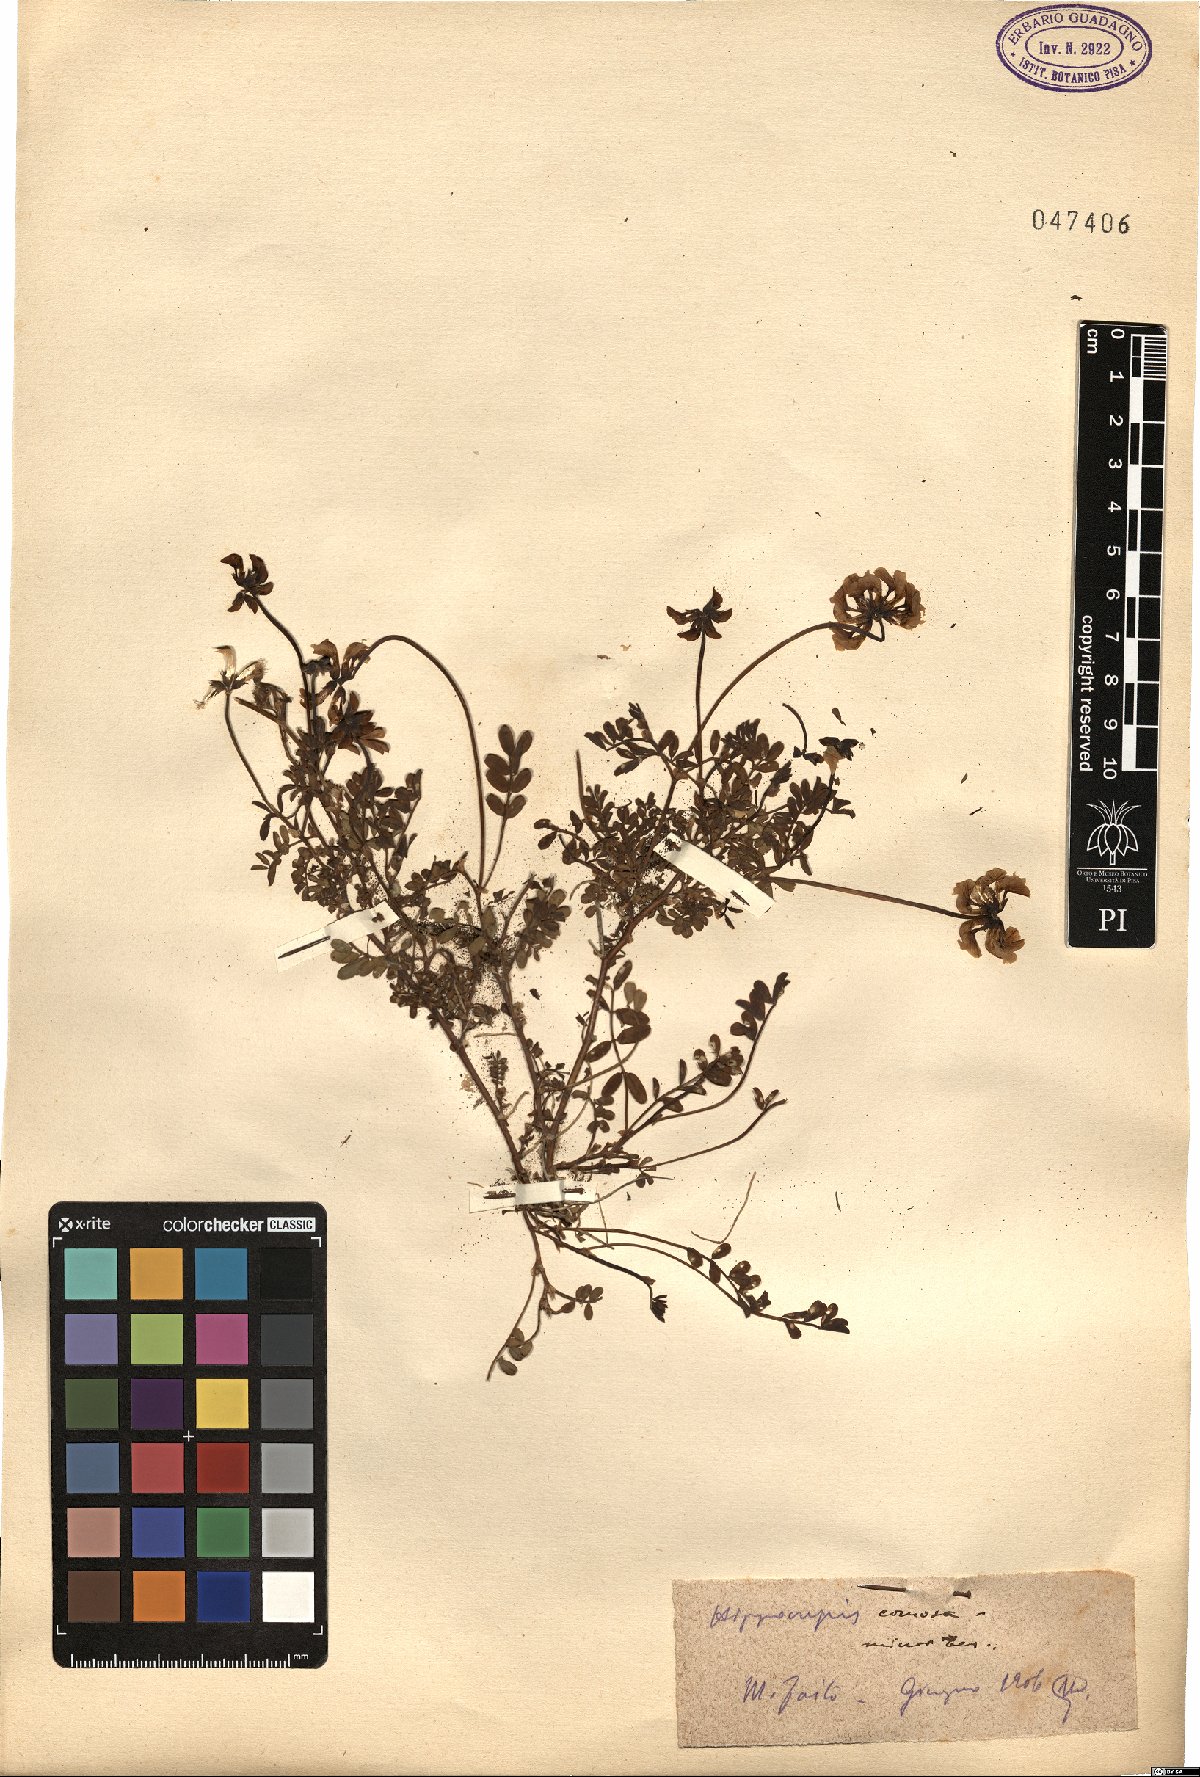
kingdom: Plantae
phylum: Tracheophyta
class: Magnoliopsida
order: Fabales
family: Fabaceae
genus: Hippocrepis
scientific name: Hippocrepis comosa
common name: Horseshoe vetch
